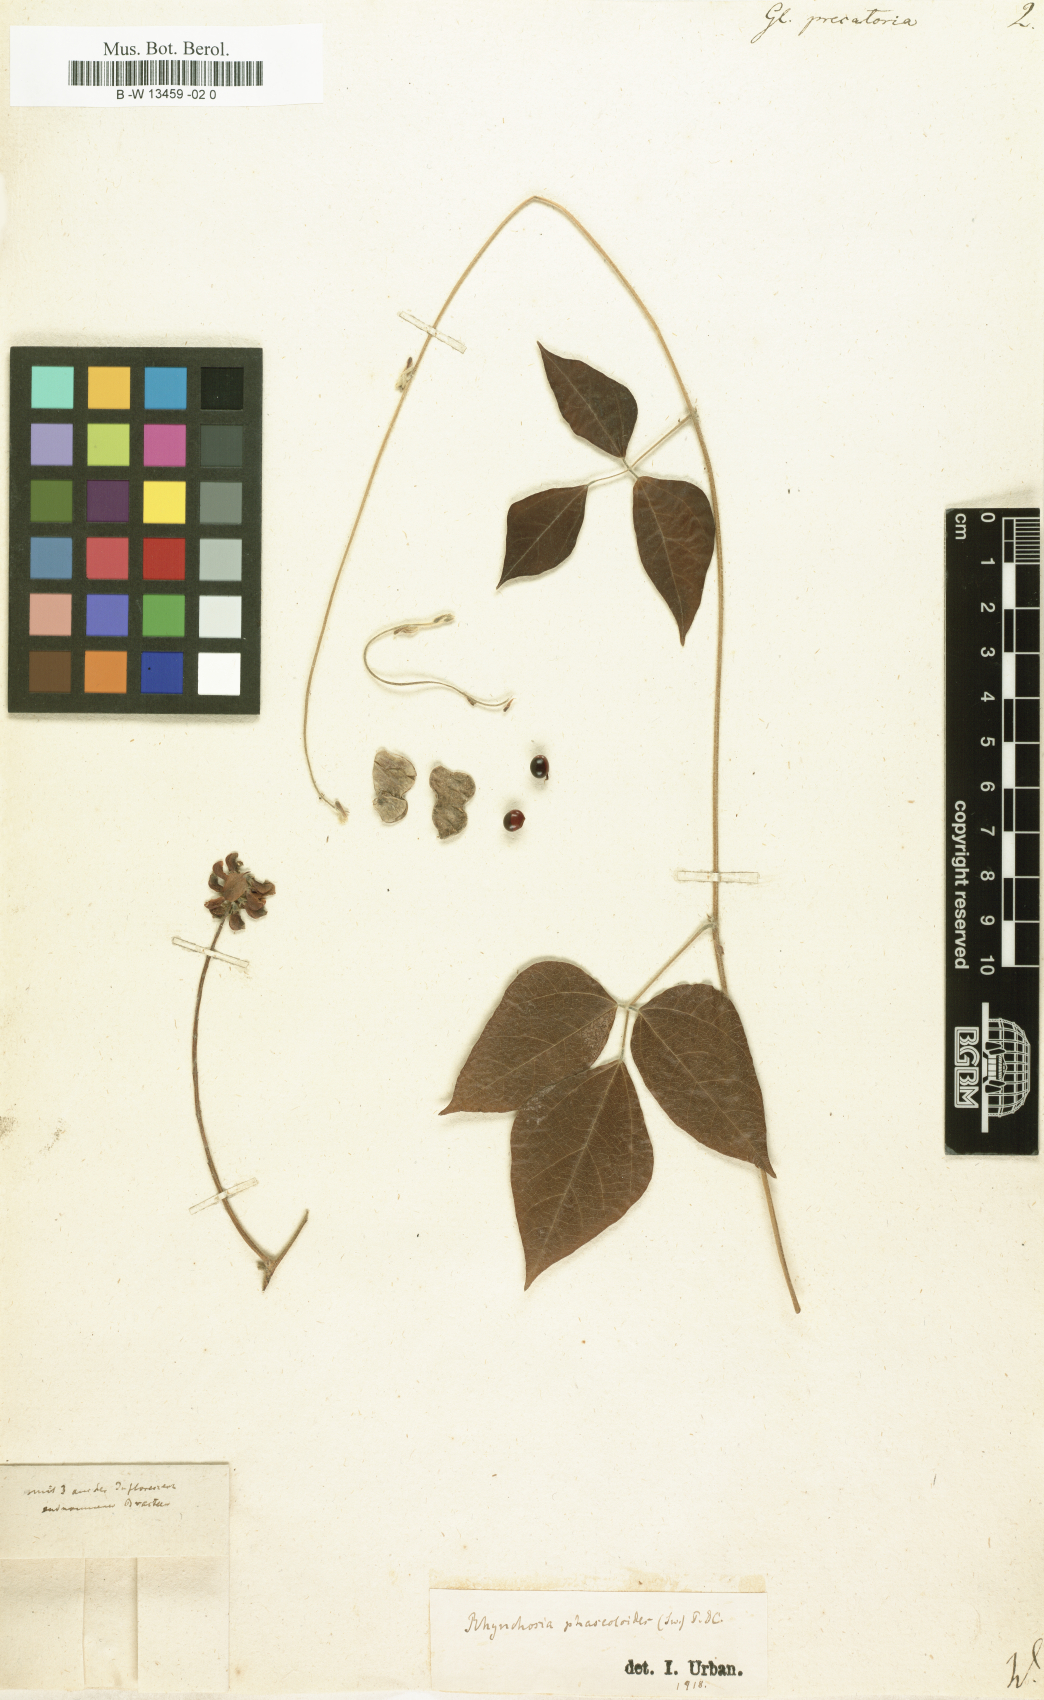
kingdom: Plantae
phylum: Tracheophyta
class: Magnoliopsida
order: Fabales
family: Fabaceae
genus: Rhynchosia
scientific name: Rhynchosia precatoria
